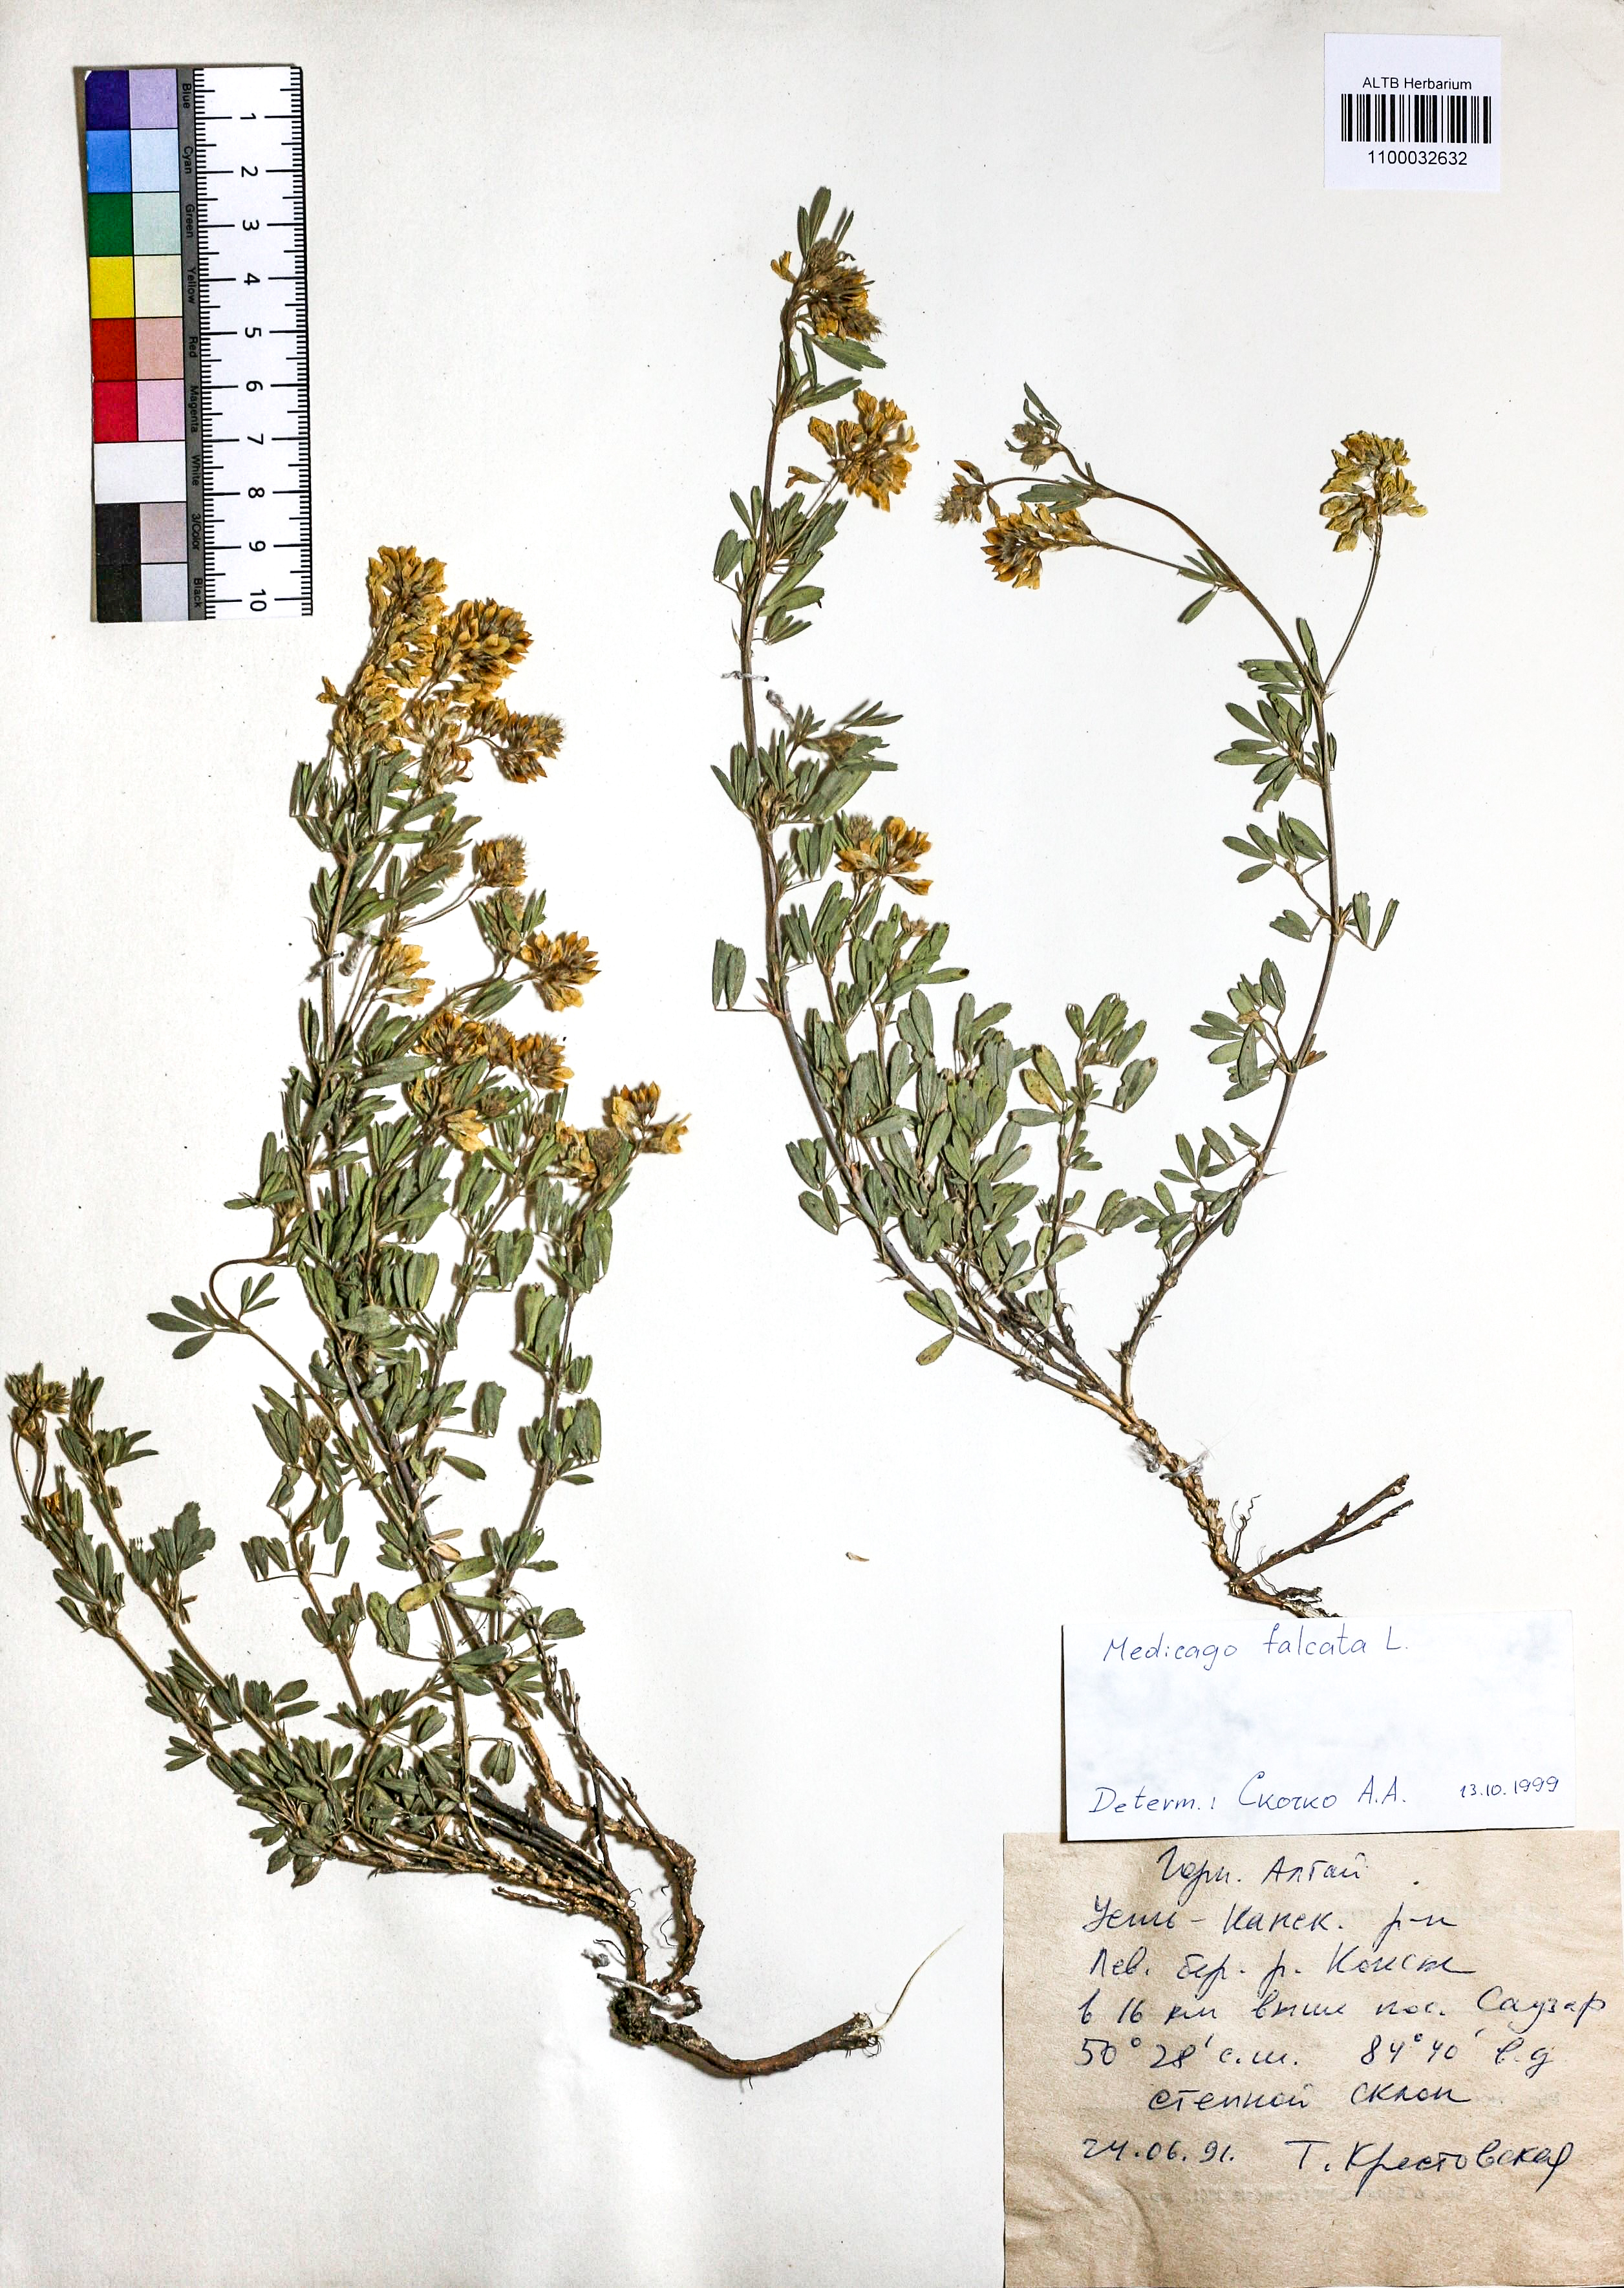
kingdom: Plantae
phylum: Tracheophyta
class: Magnoliopsida
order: Fabales
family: Fabaceae
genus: Medicago
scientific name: Medicago falcata
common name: Sickle medick
